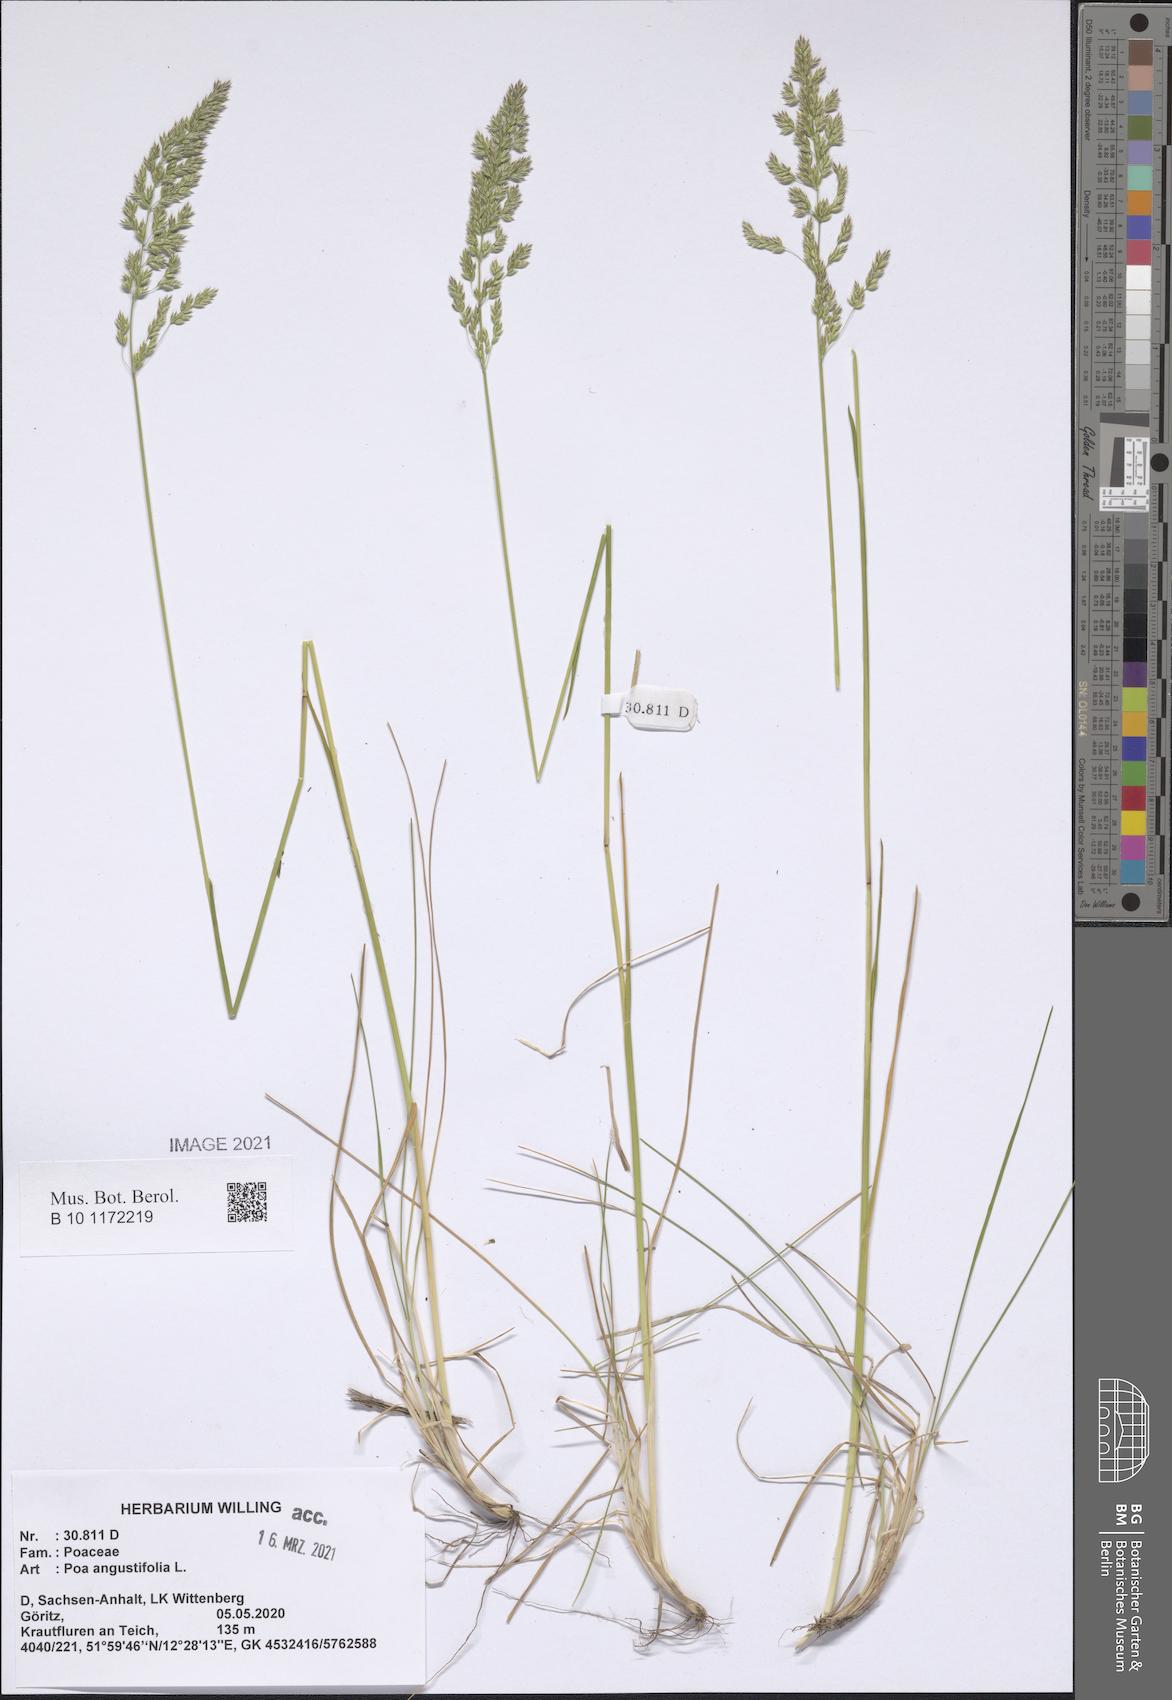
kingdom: Plantae
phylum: Tracheophyta
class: Liliopsida
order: Poales
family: Poaceae
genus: Poa
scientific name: Poa angustifolia
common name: Narrow-leaved meadow-grass
